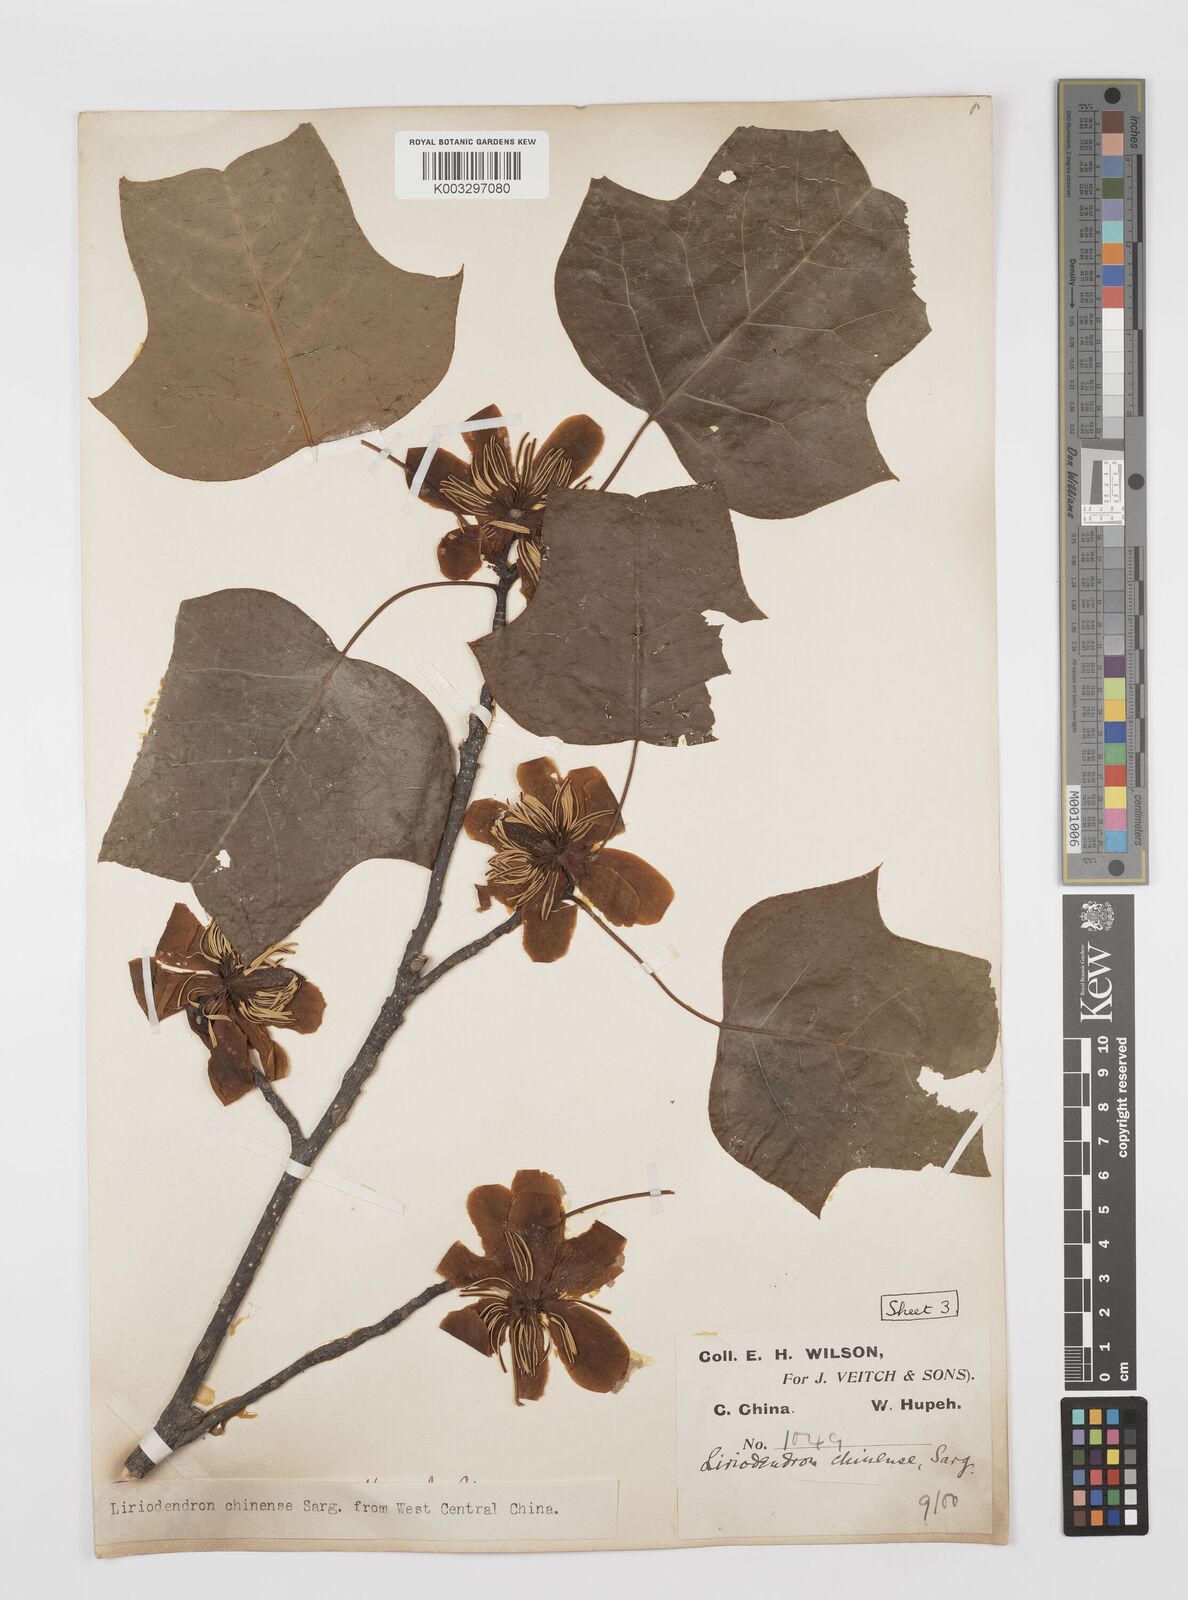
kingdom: Plantae
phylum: Tracheophyta
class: Magnoliopsida
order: Magnoliales
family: Magnoliaceae
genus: Liriodendron
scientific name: Liriodendron chinense
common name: Chinese tuliptree
